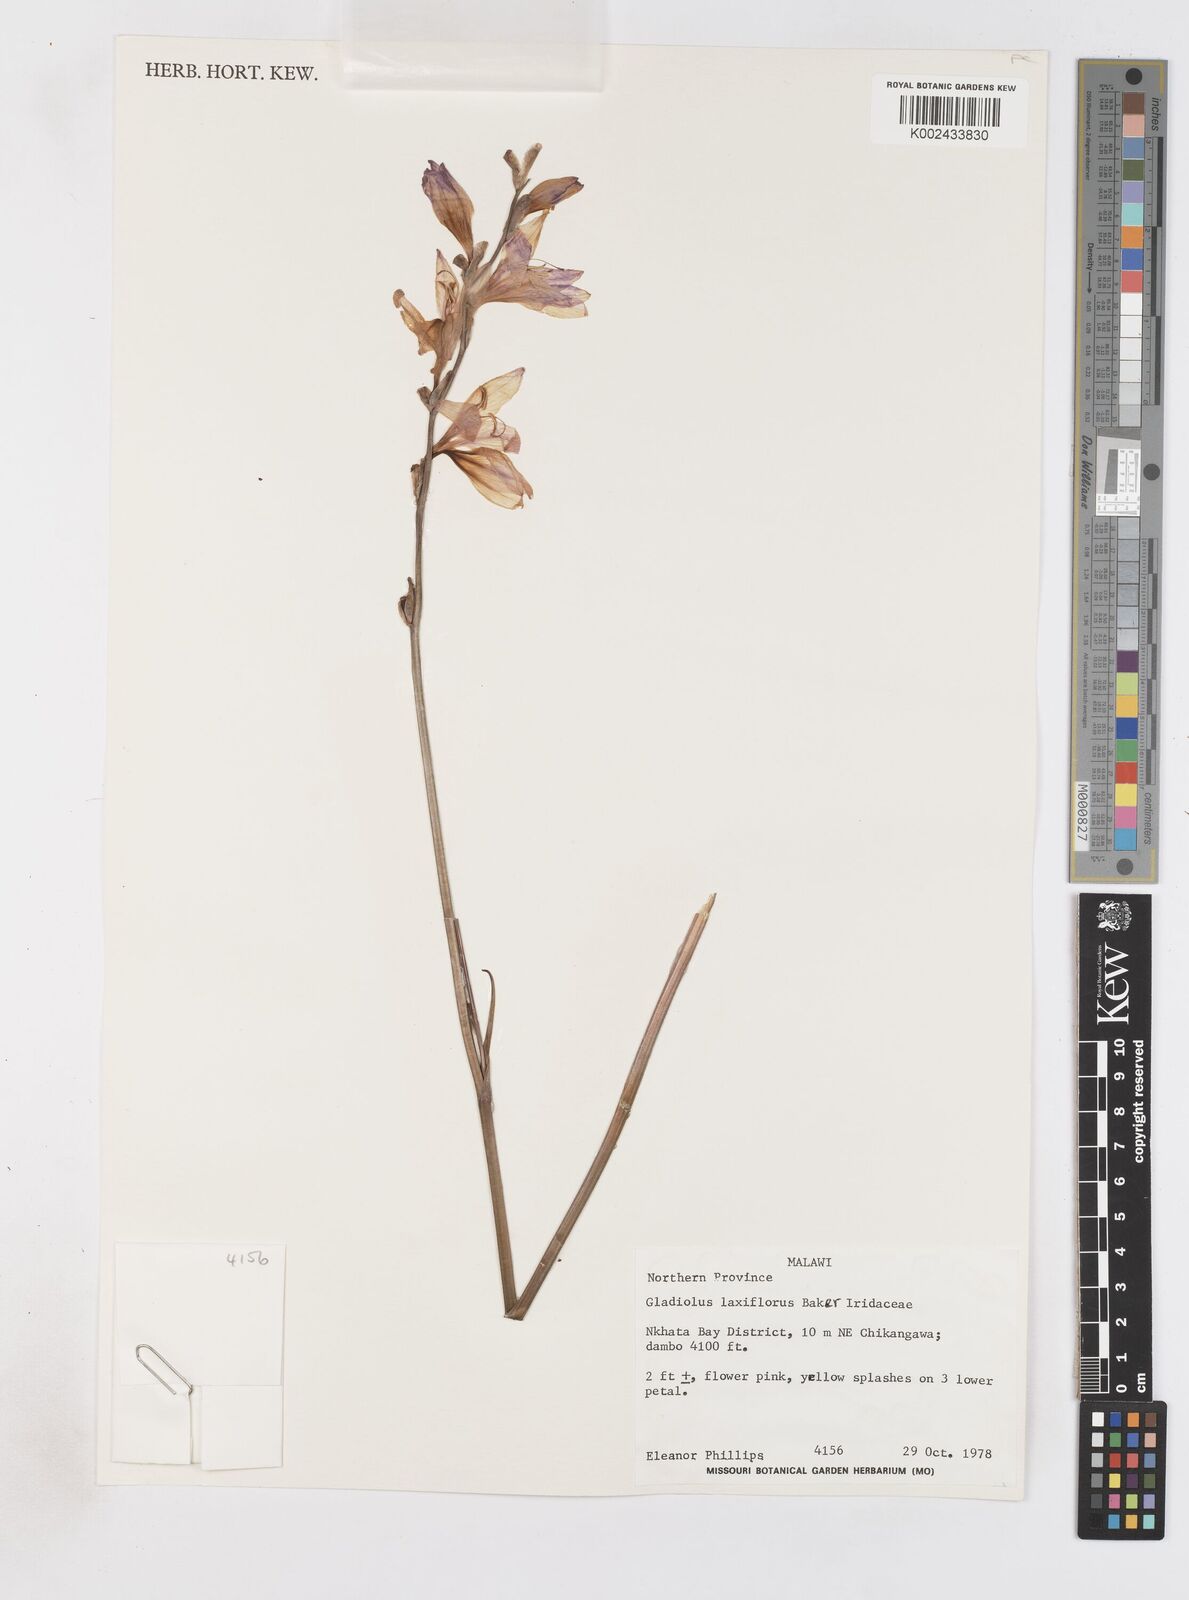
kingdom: Plantae
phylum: Tracheophyta
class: Liliopsida
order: Asparagales
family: Iridaceae
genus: Gladiolus
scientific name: Gladiolus laxiflorus
